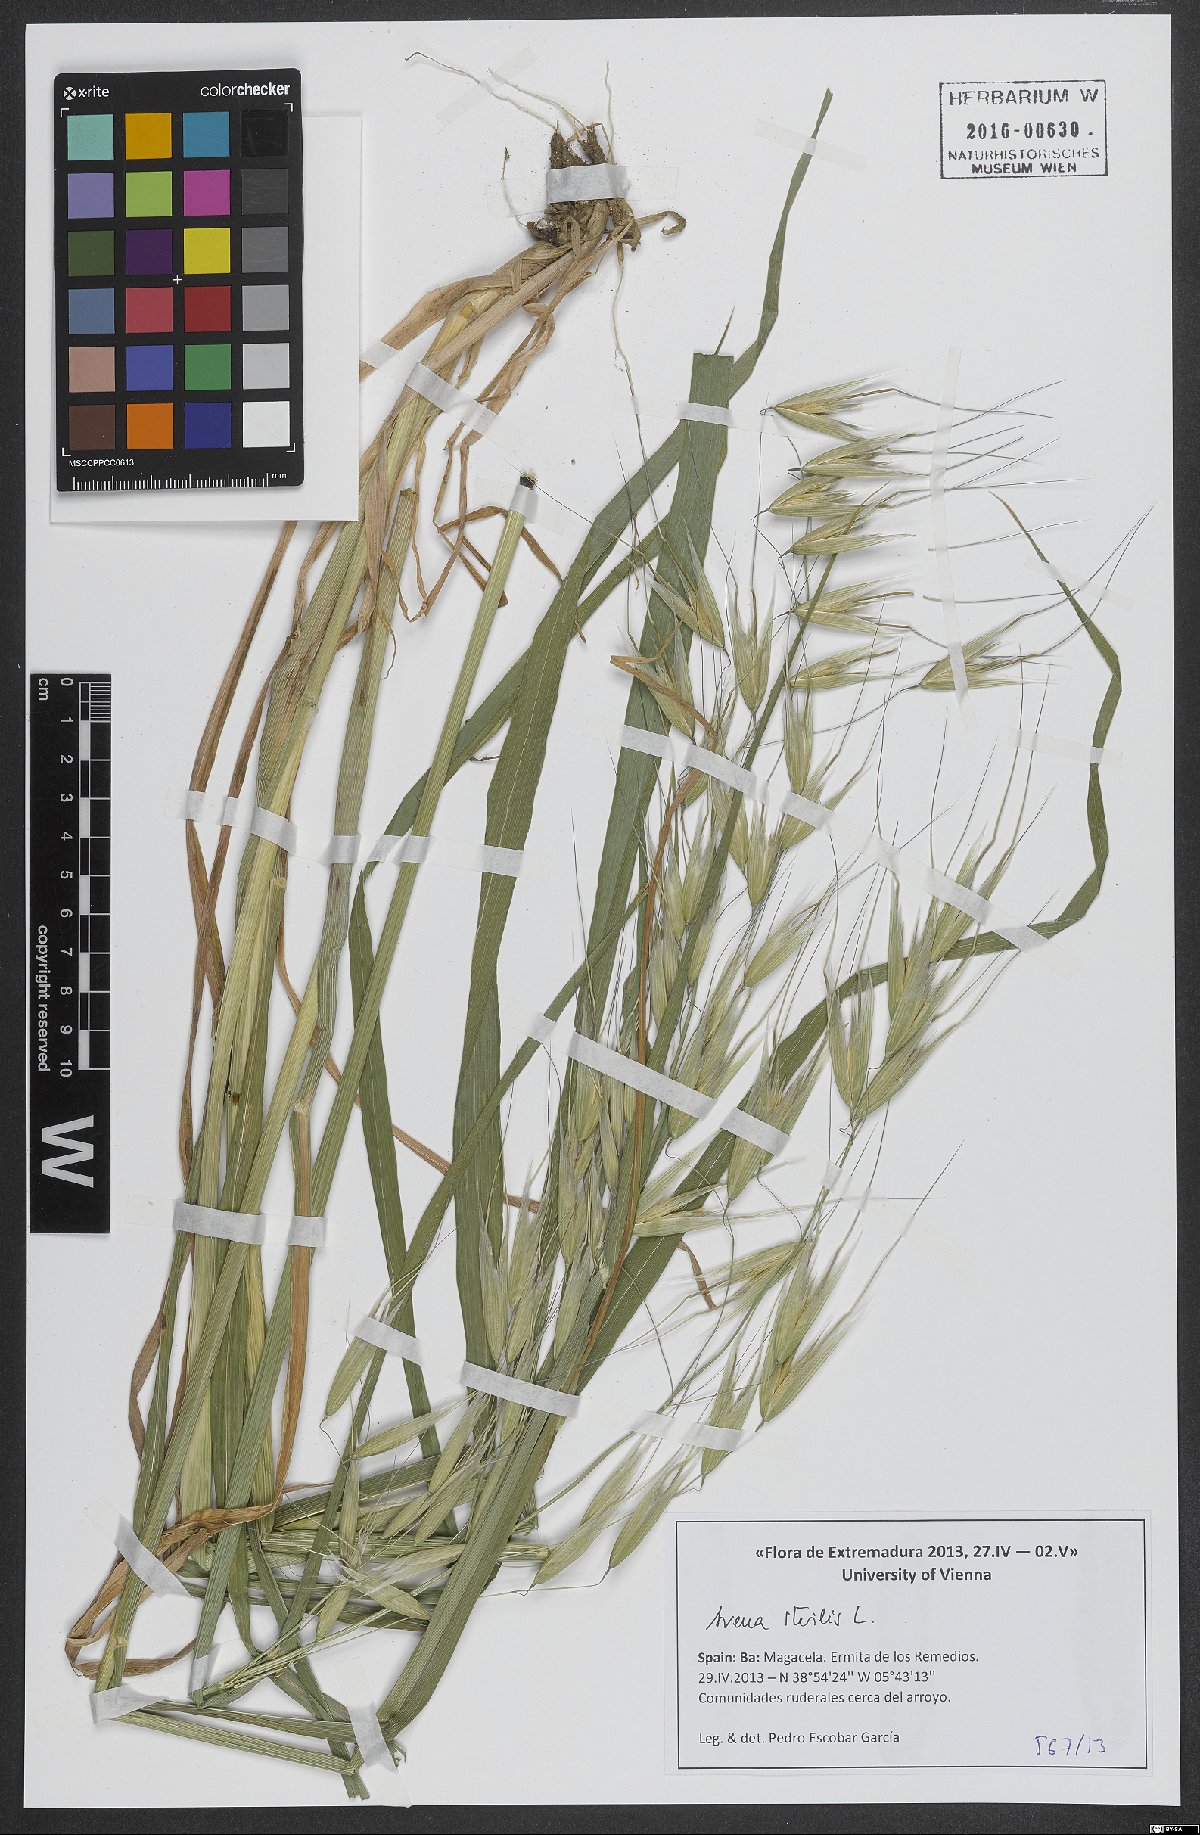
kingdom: Plantae
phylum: Tracheophyta
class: Liliopsida
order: Poales
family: Poaceae
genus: Avena
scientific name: Avena sterilis
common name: Animated oat
